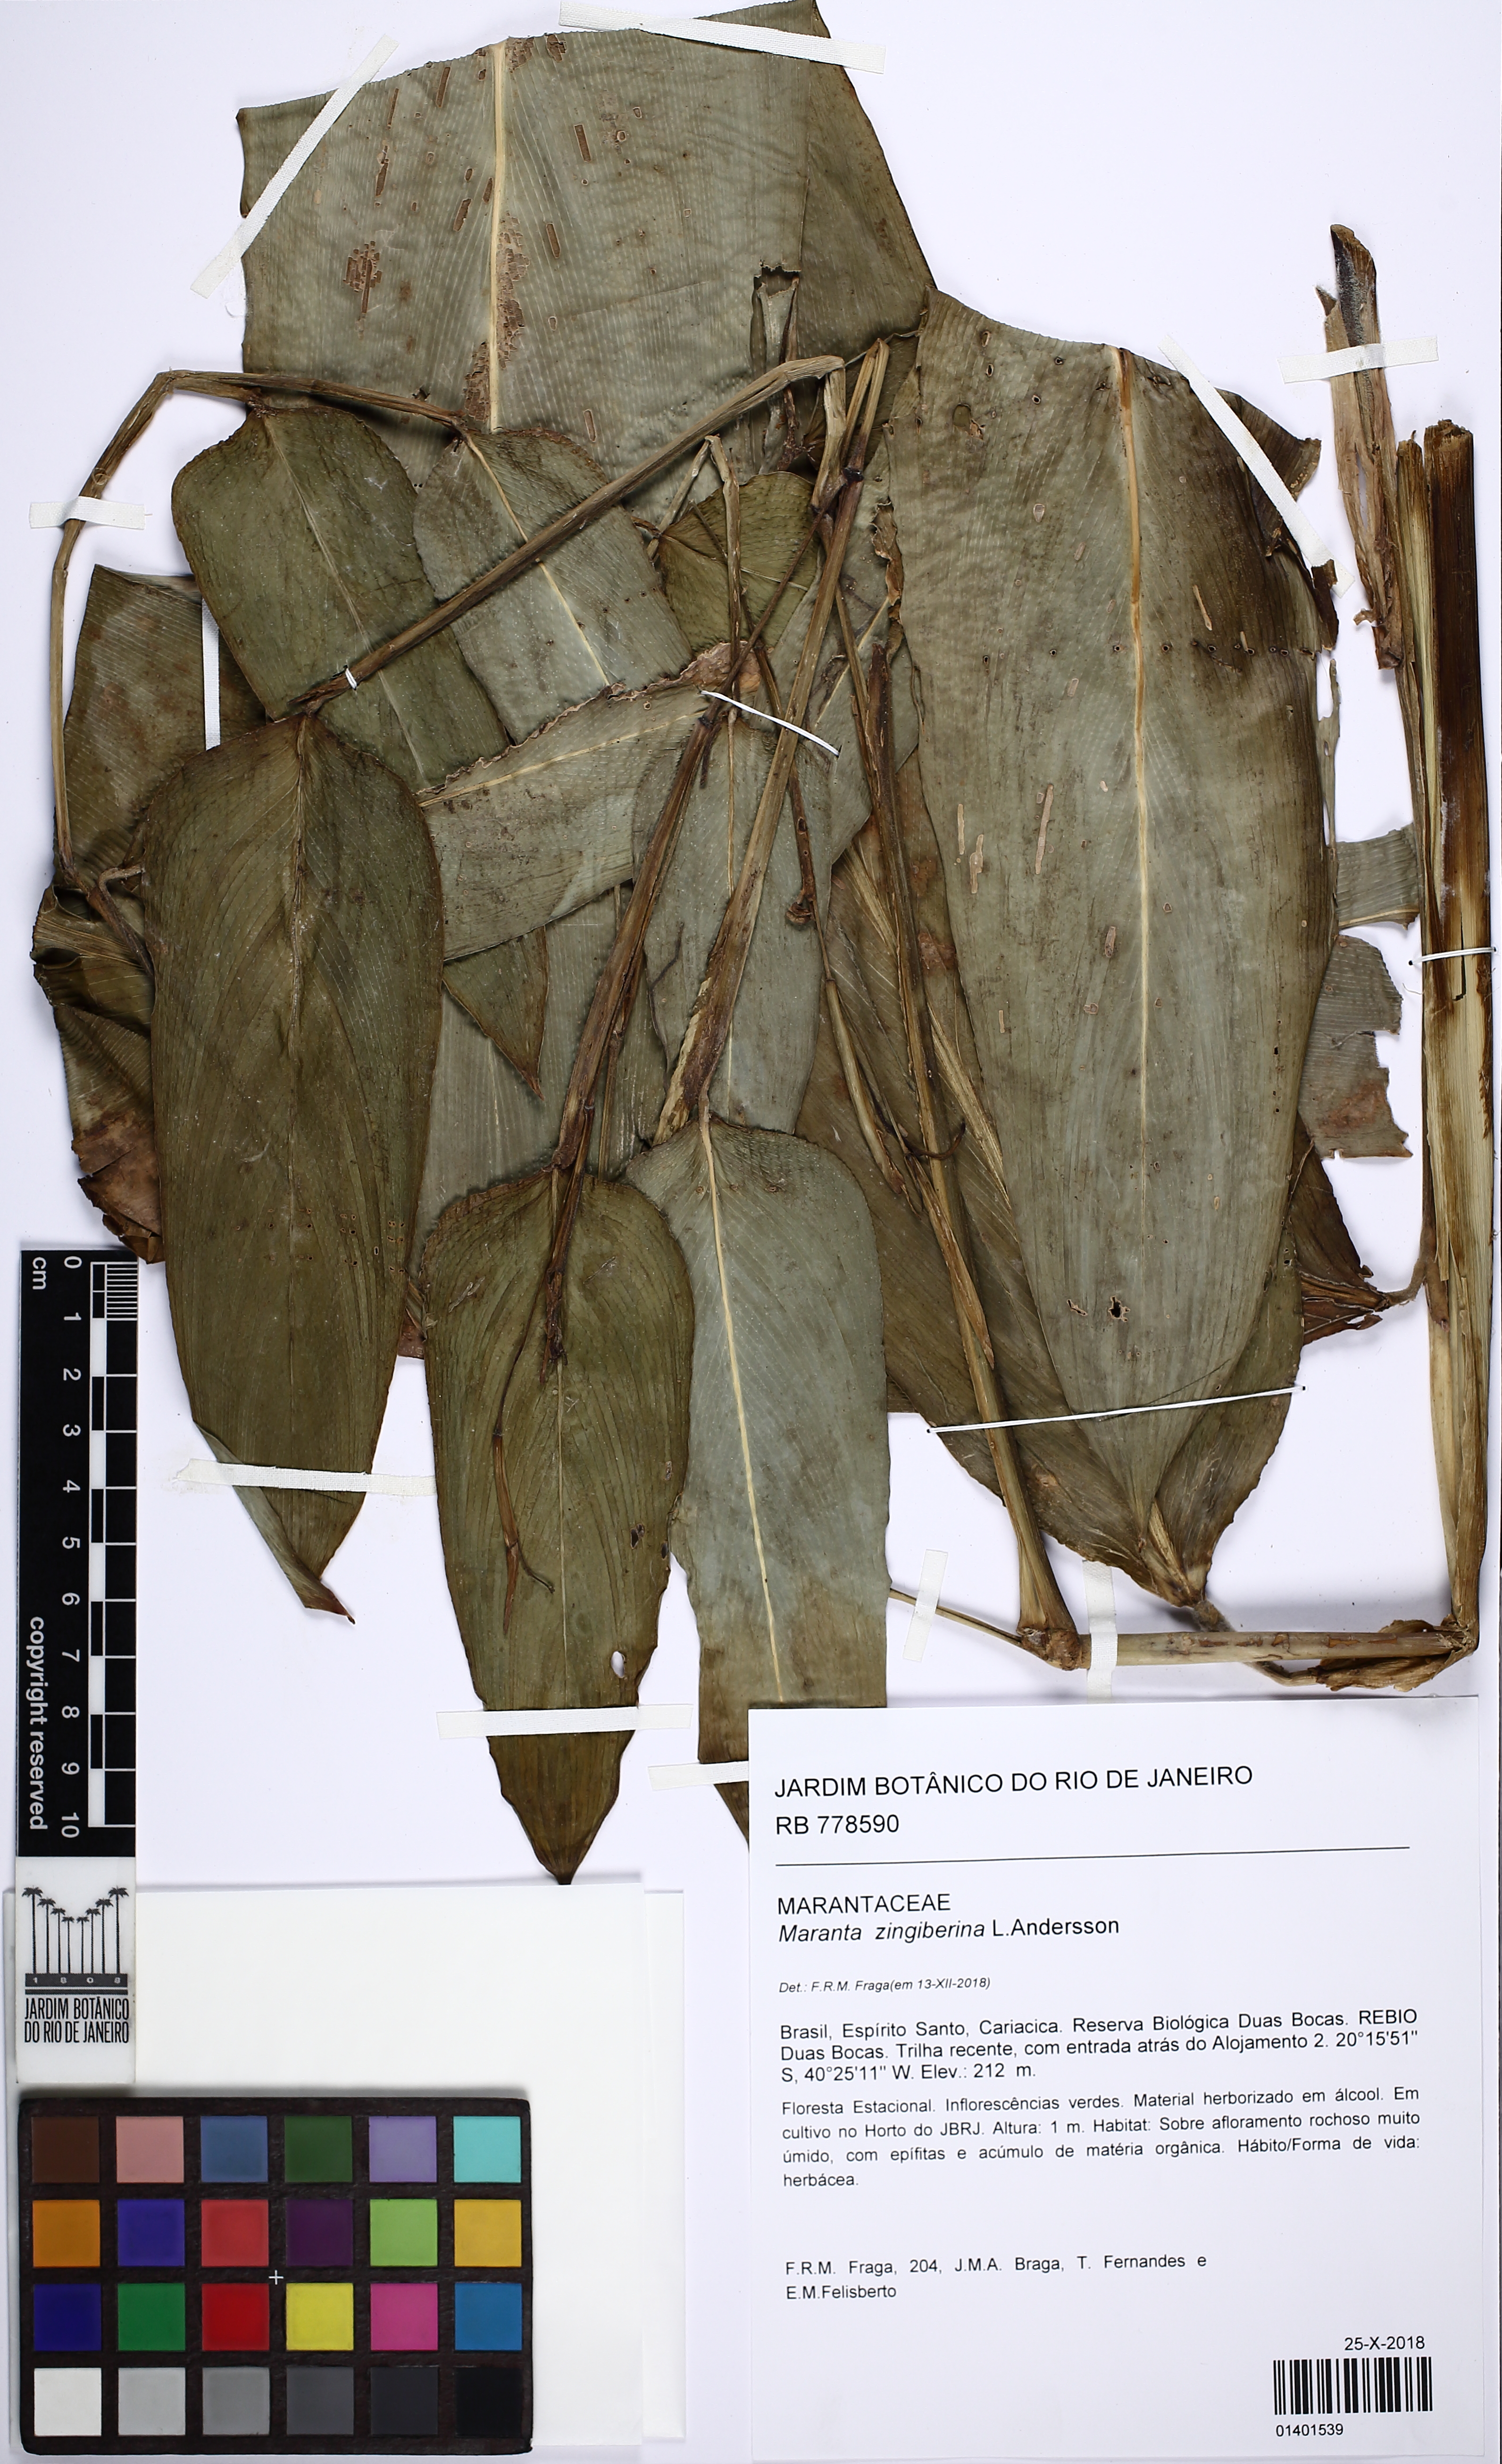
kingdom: Plantae
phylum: Tracheophyta
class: Liliopsida
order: Zingiberales
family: Marantaceae
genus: Maranta
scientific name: Maranta zingiberina
